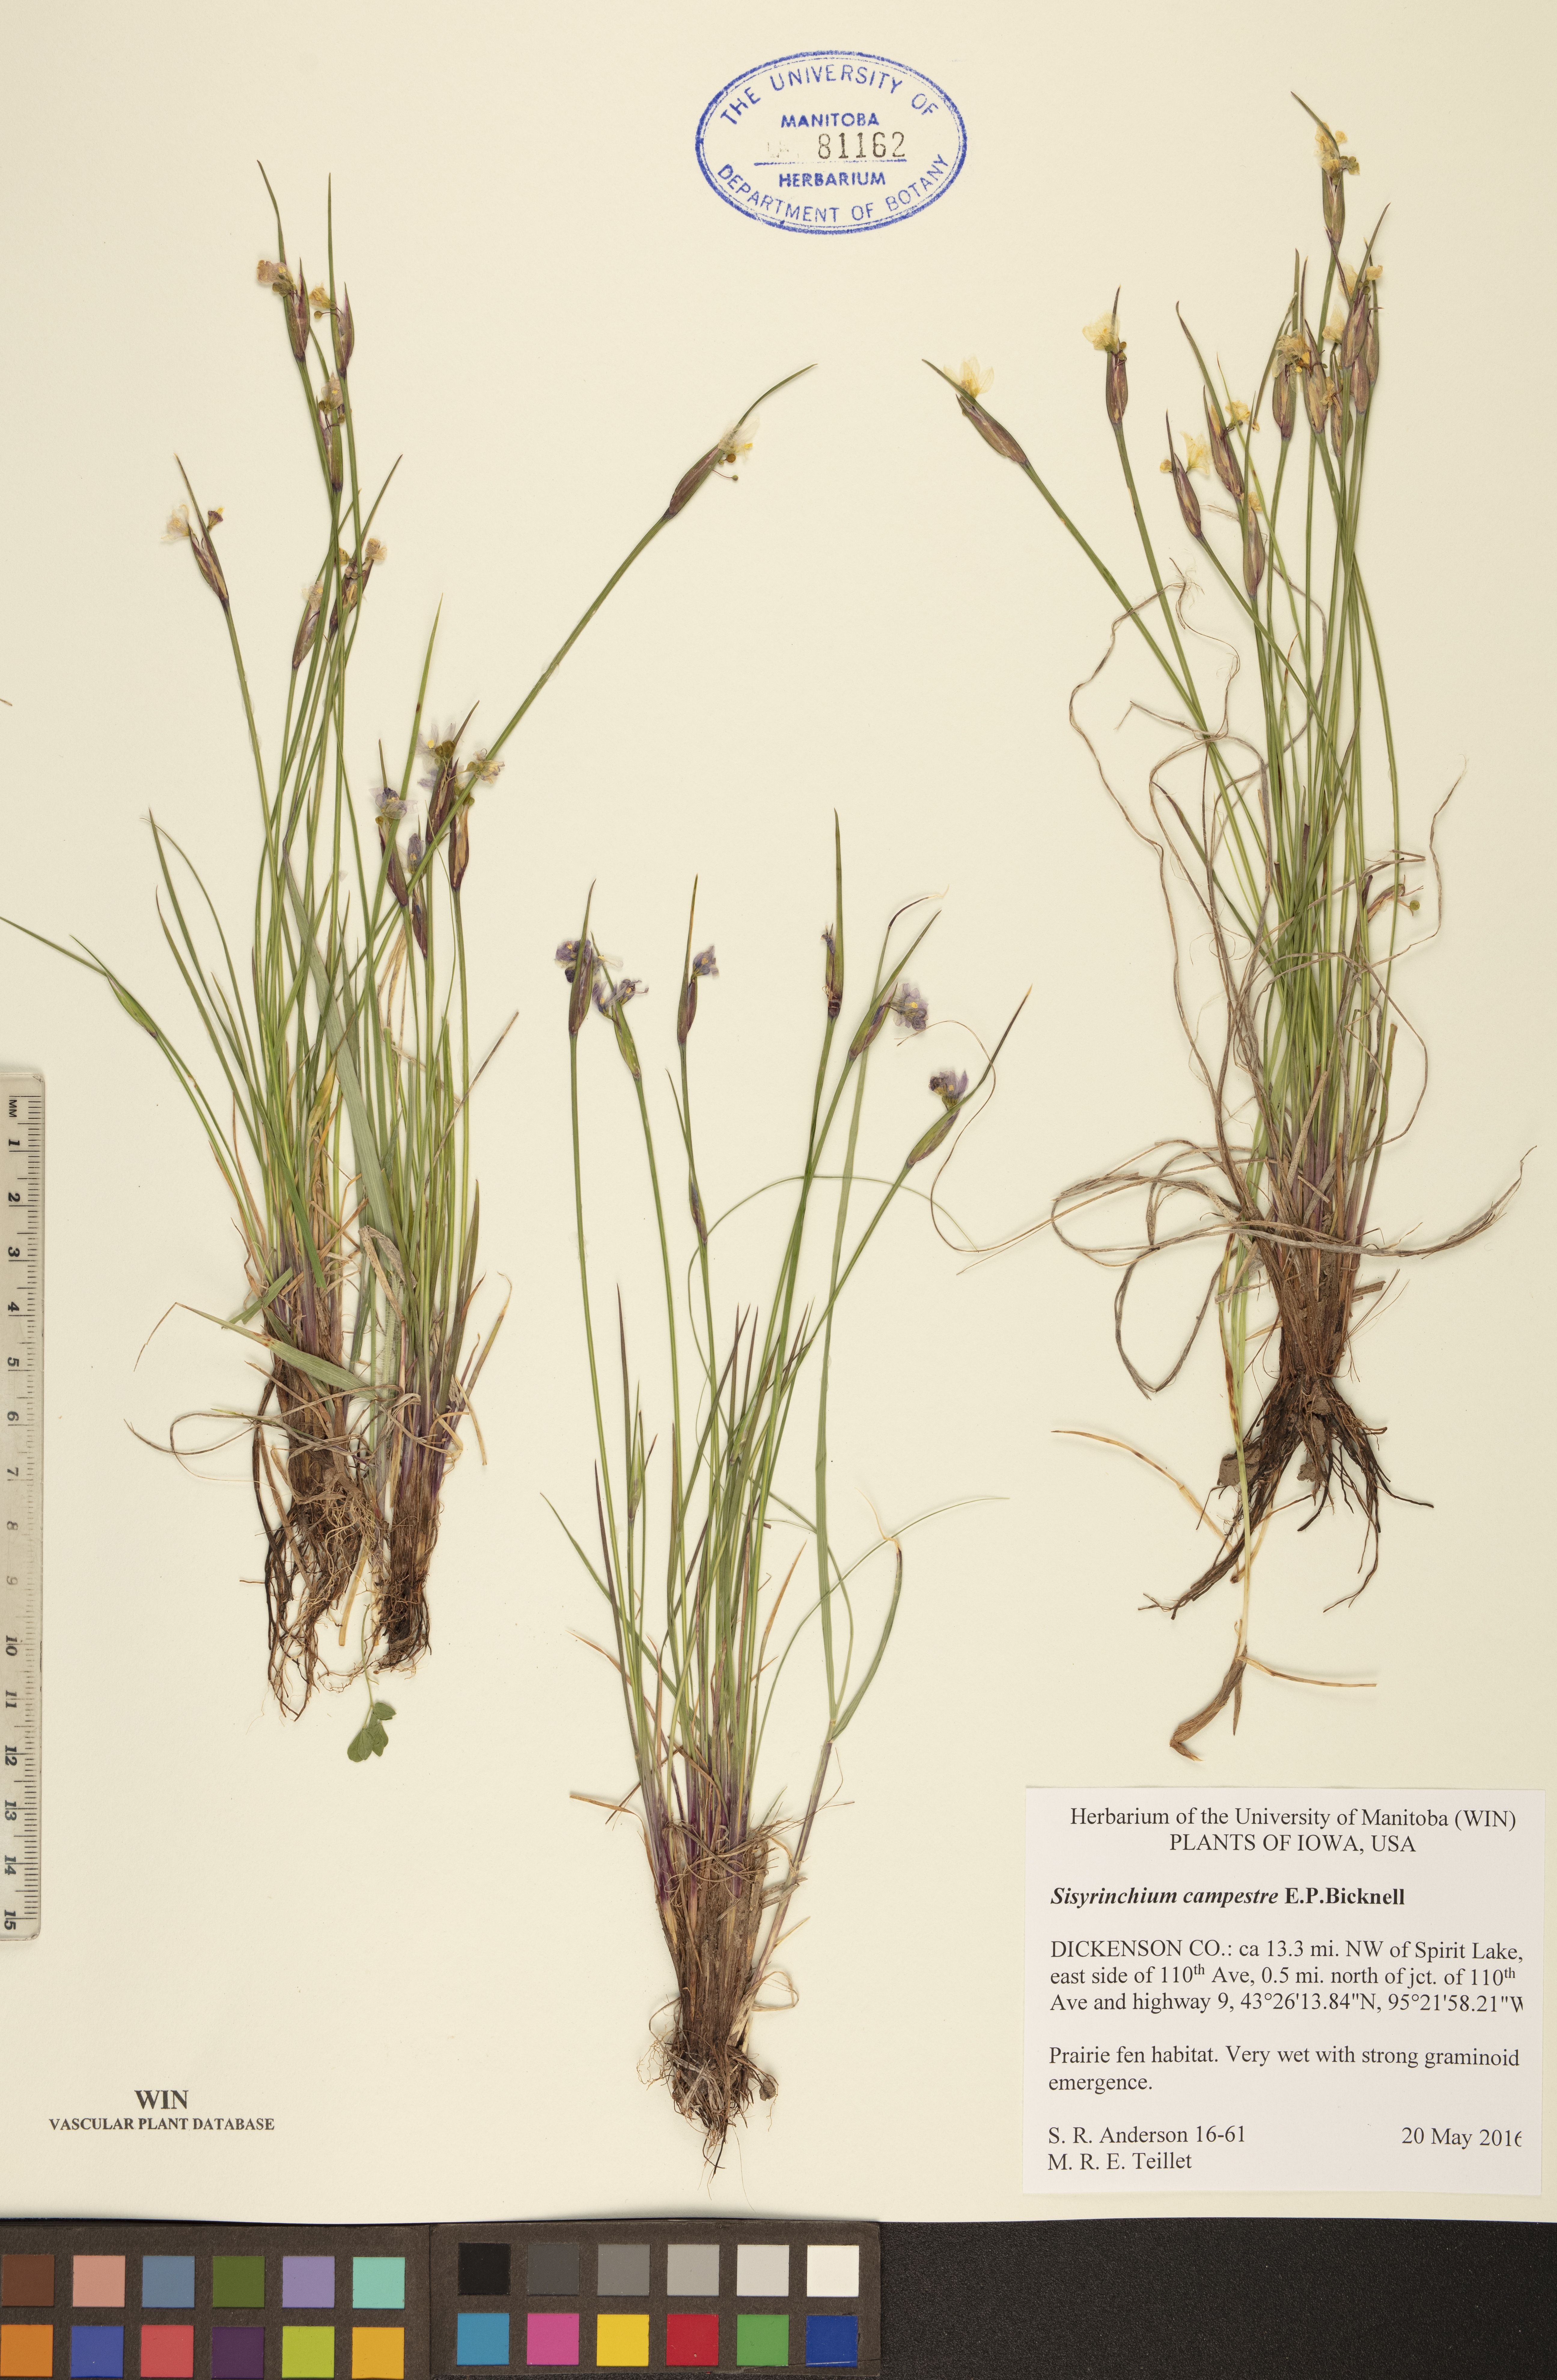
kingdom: Plantae
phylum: Tracheophyta
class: Liliopsida
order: Asparagales
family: Iridaceae
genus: Sisyrinchium
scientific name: Sisyrinchium campestre
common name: Prairie blue-eyed-grass
